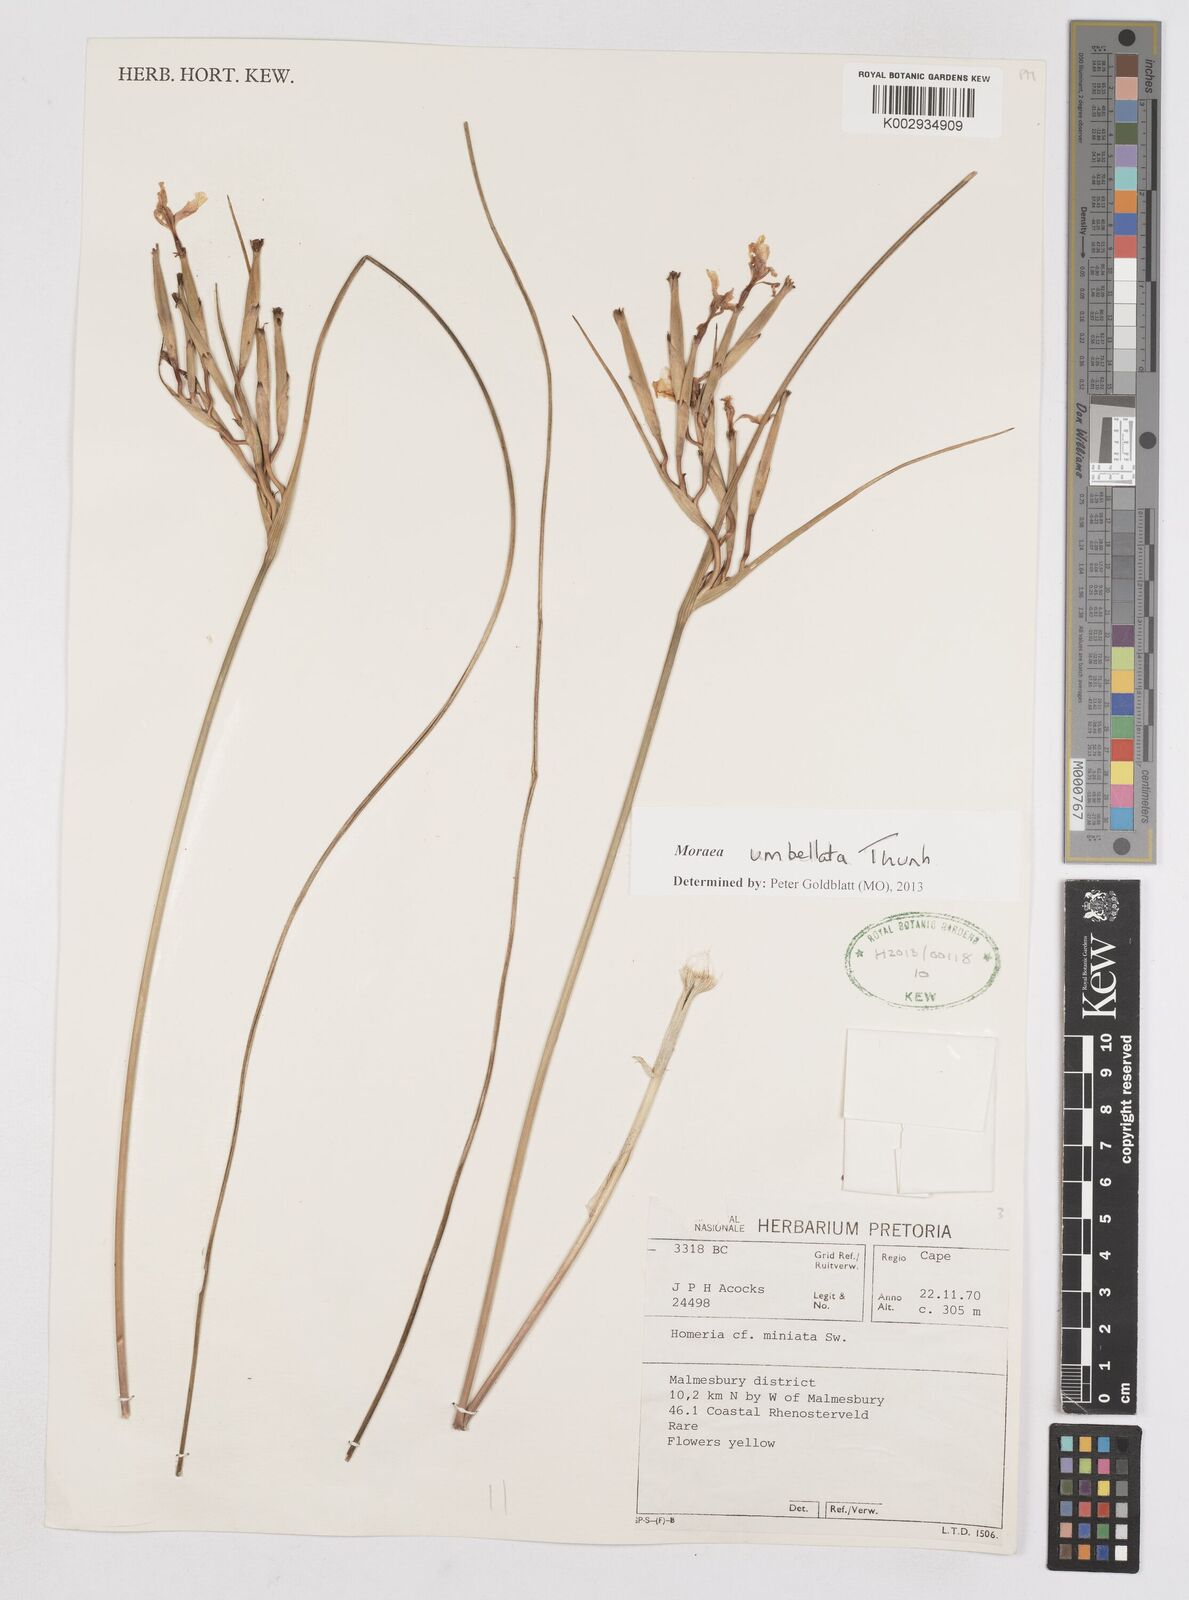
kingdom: Plantae
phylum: Tracheophyta
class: Liliopsida
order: Asparagales
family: Iridaceae
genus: Moraea
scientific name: Moraea umbellata
